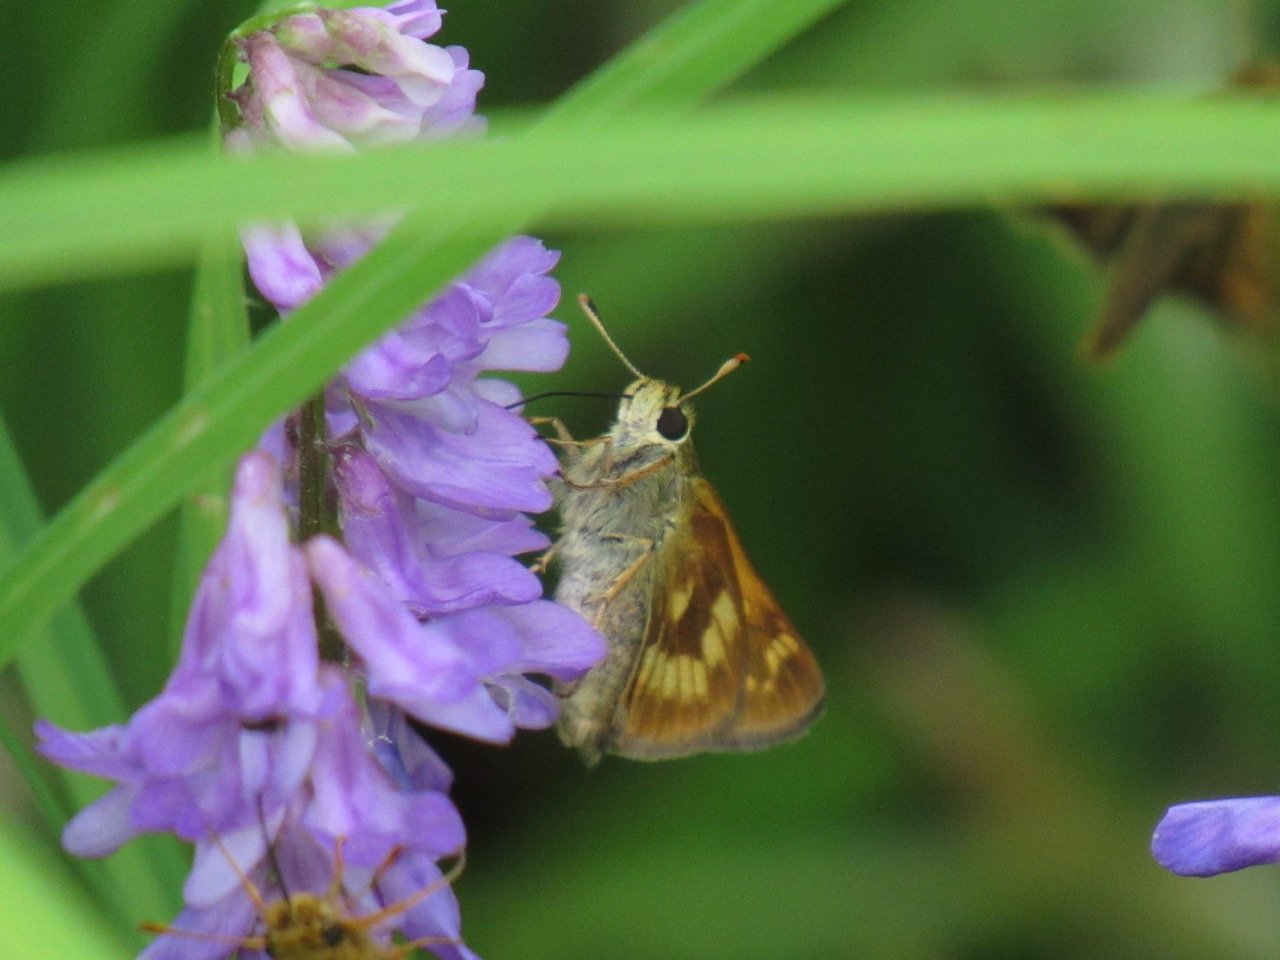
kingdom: Animalia
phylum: Arthropoda
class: Insecta
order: Lepidoptera
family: Hesperiidae
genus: Polites
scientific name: Polites
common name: Long Dash Skipper
